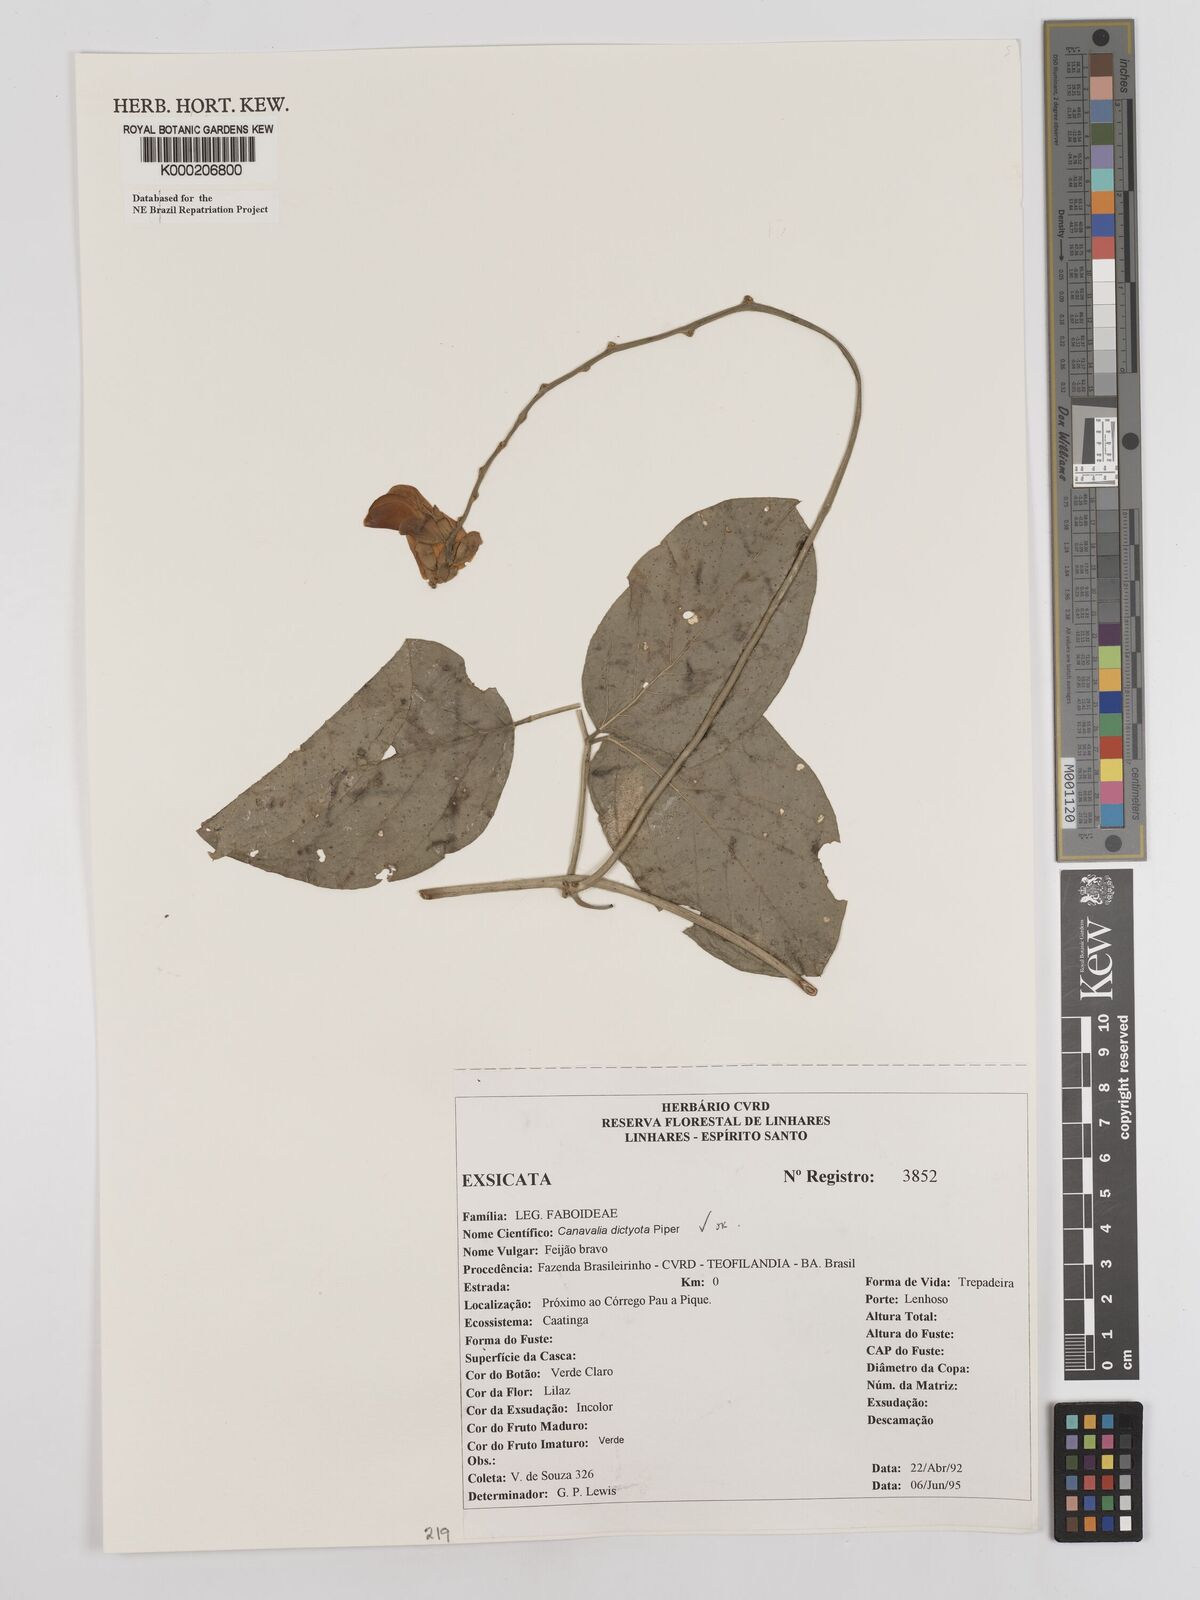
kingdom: Plantae
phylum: Tracheophyta
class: Magnoliopsida
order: Fabales
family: Fabaceae
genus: Canavalia
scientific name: Canavalia brasiliensis
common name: Barbicou-bean
